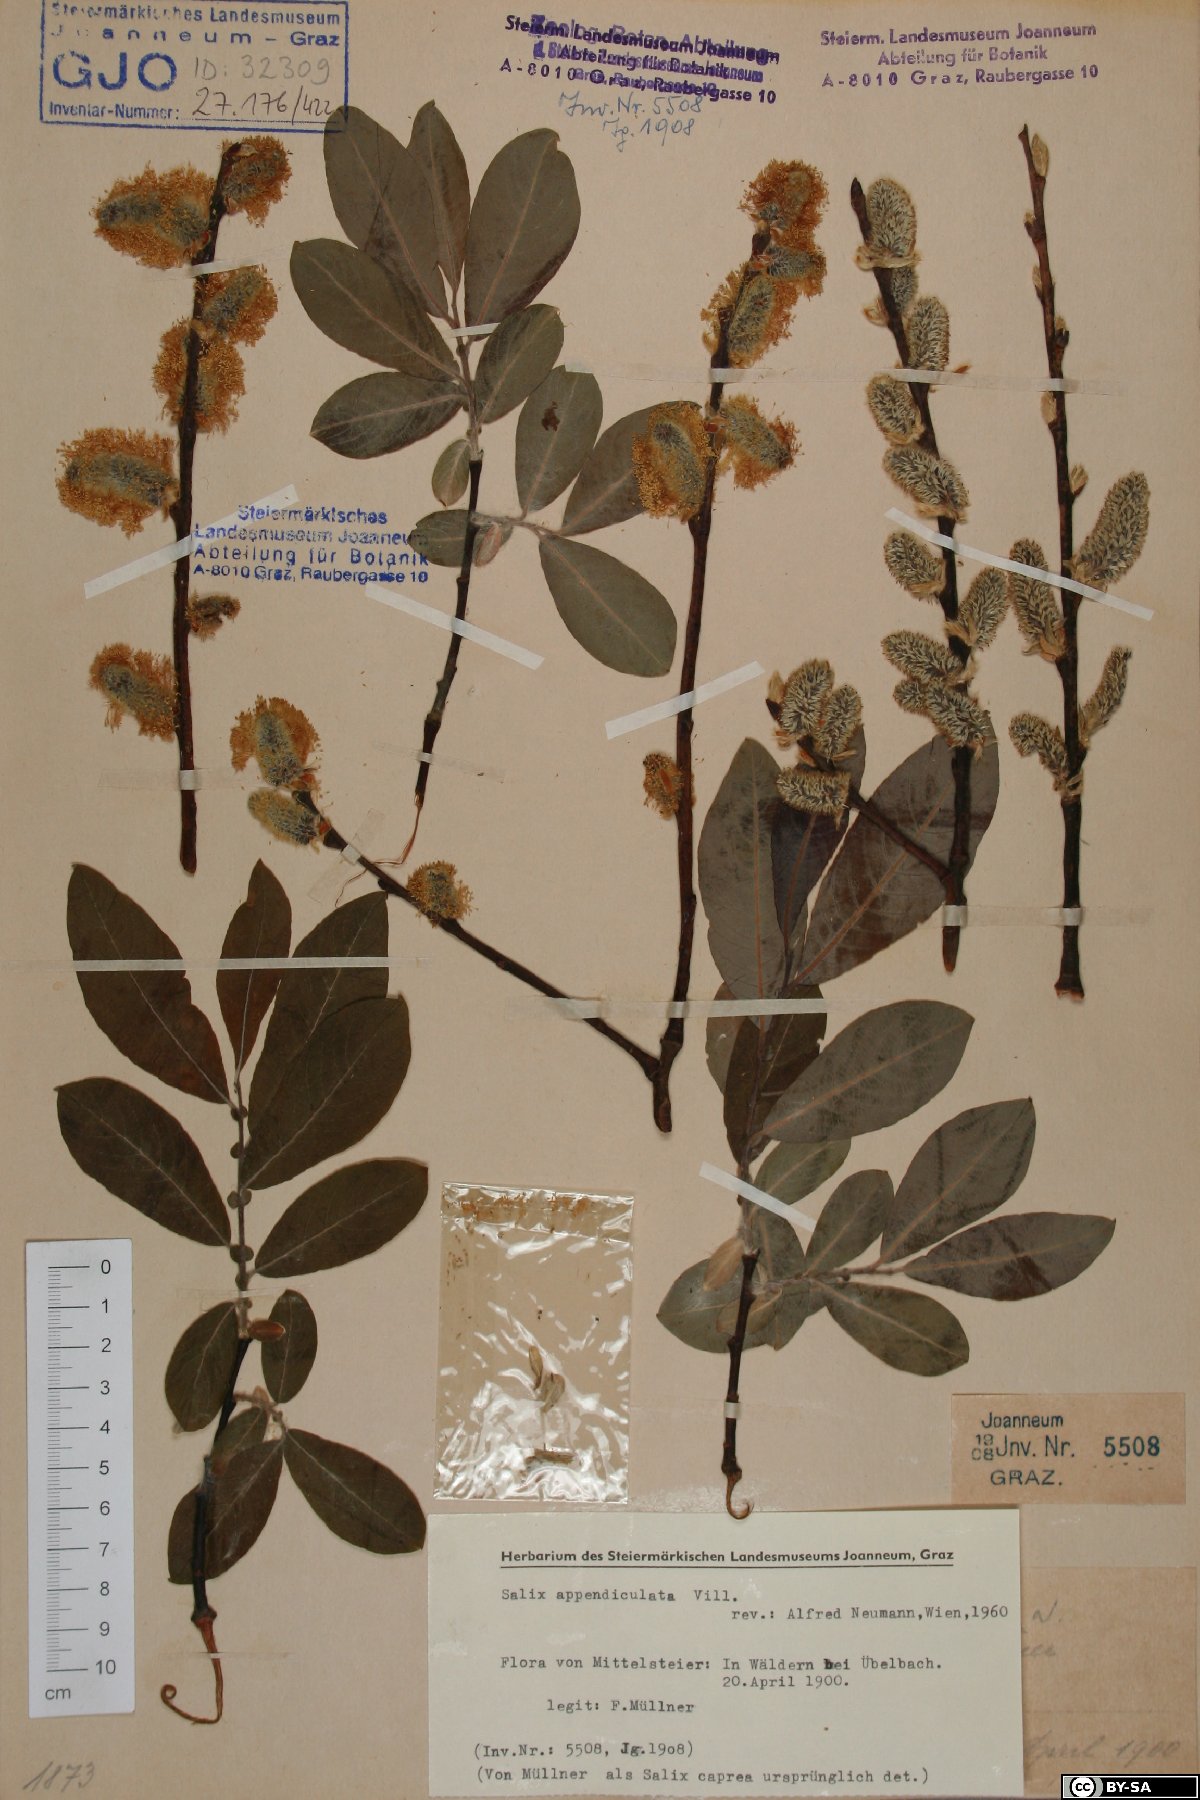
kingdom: Plantae
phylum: Tracheophyta
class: Magnoliopsida
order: Malpighiales
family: Salicaceae
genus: Salix
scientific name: Salix appendiculata
